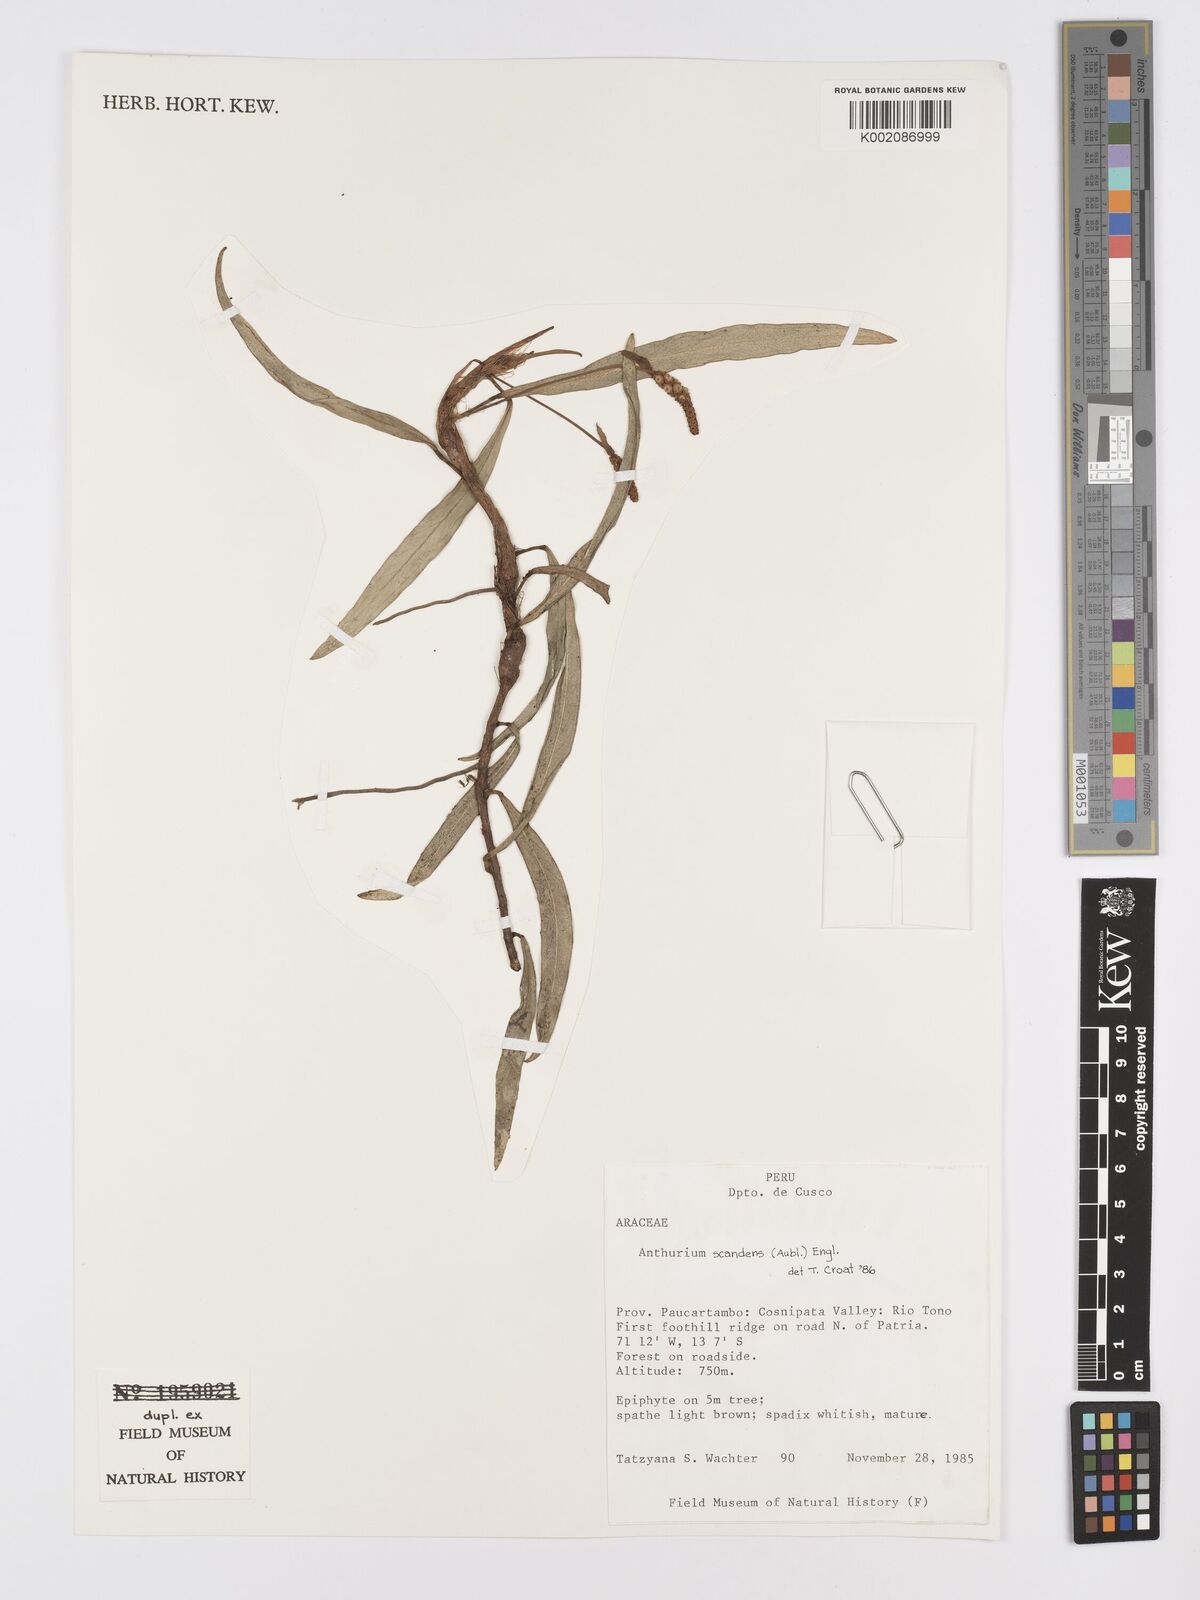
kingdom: Plantae
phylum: Tracheophyta
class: Liliopsida
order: Alismatales
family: Araceae
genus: Anthurium
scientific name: Anthurium scandens
